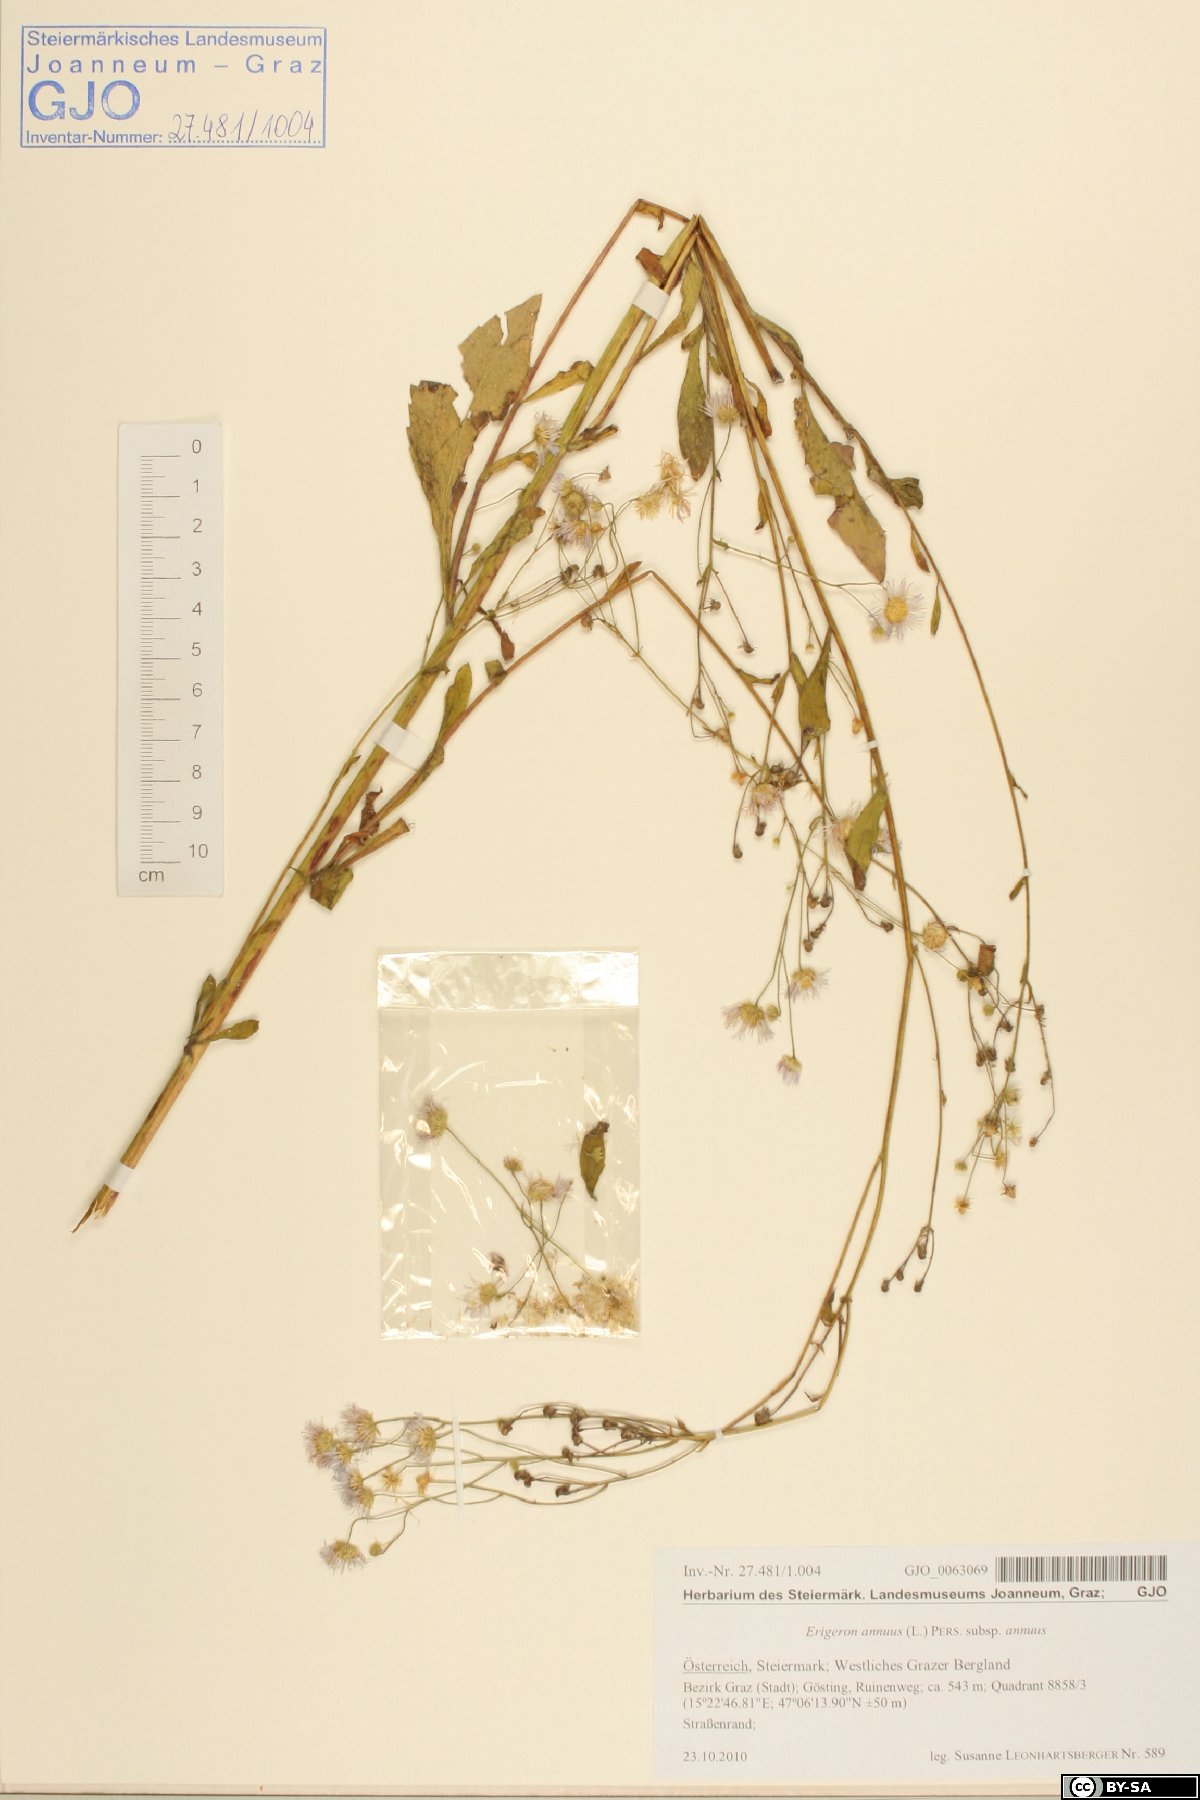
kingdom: Plantae
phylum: Tracheophyta
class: Magnoliopsida
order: Asterales
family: Asteraceae
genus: Erigeron
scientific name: Erigeron annuus
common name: Tall fleabane
